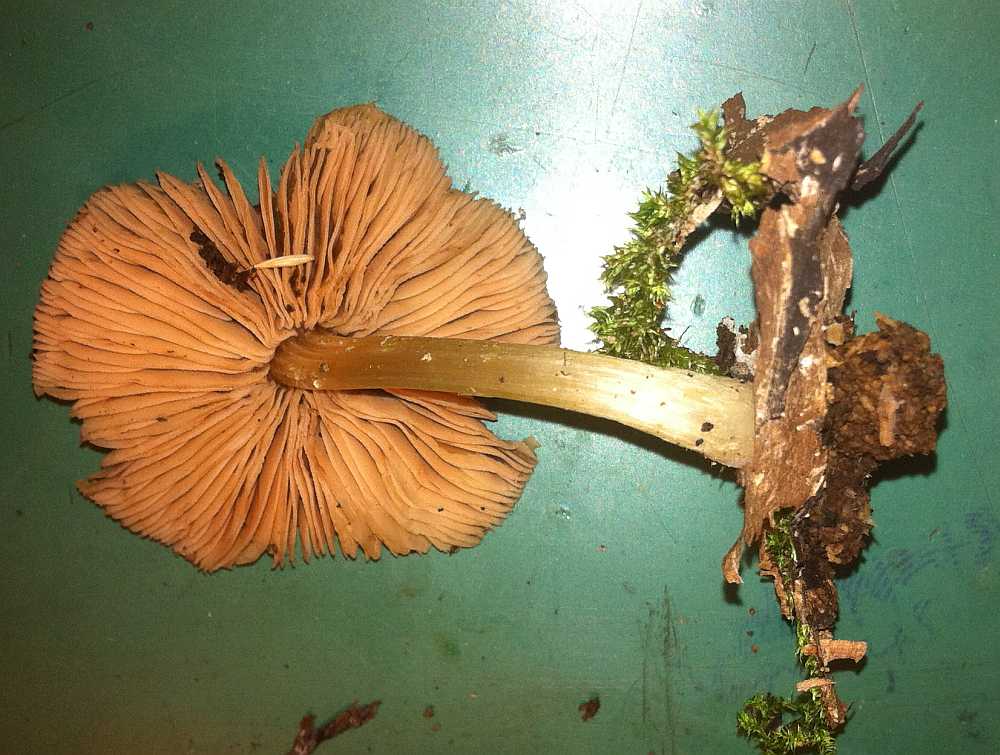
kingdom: Fungi
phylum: Basidiomycota
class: Agaricomycetes
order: Agaricales
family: Pluteaceae
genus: Pluteus
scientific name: Pluteus romellii
